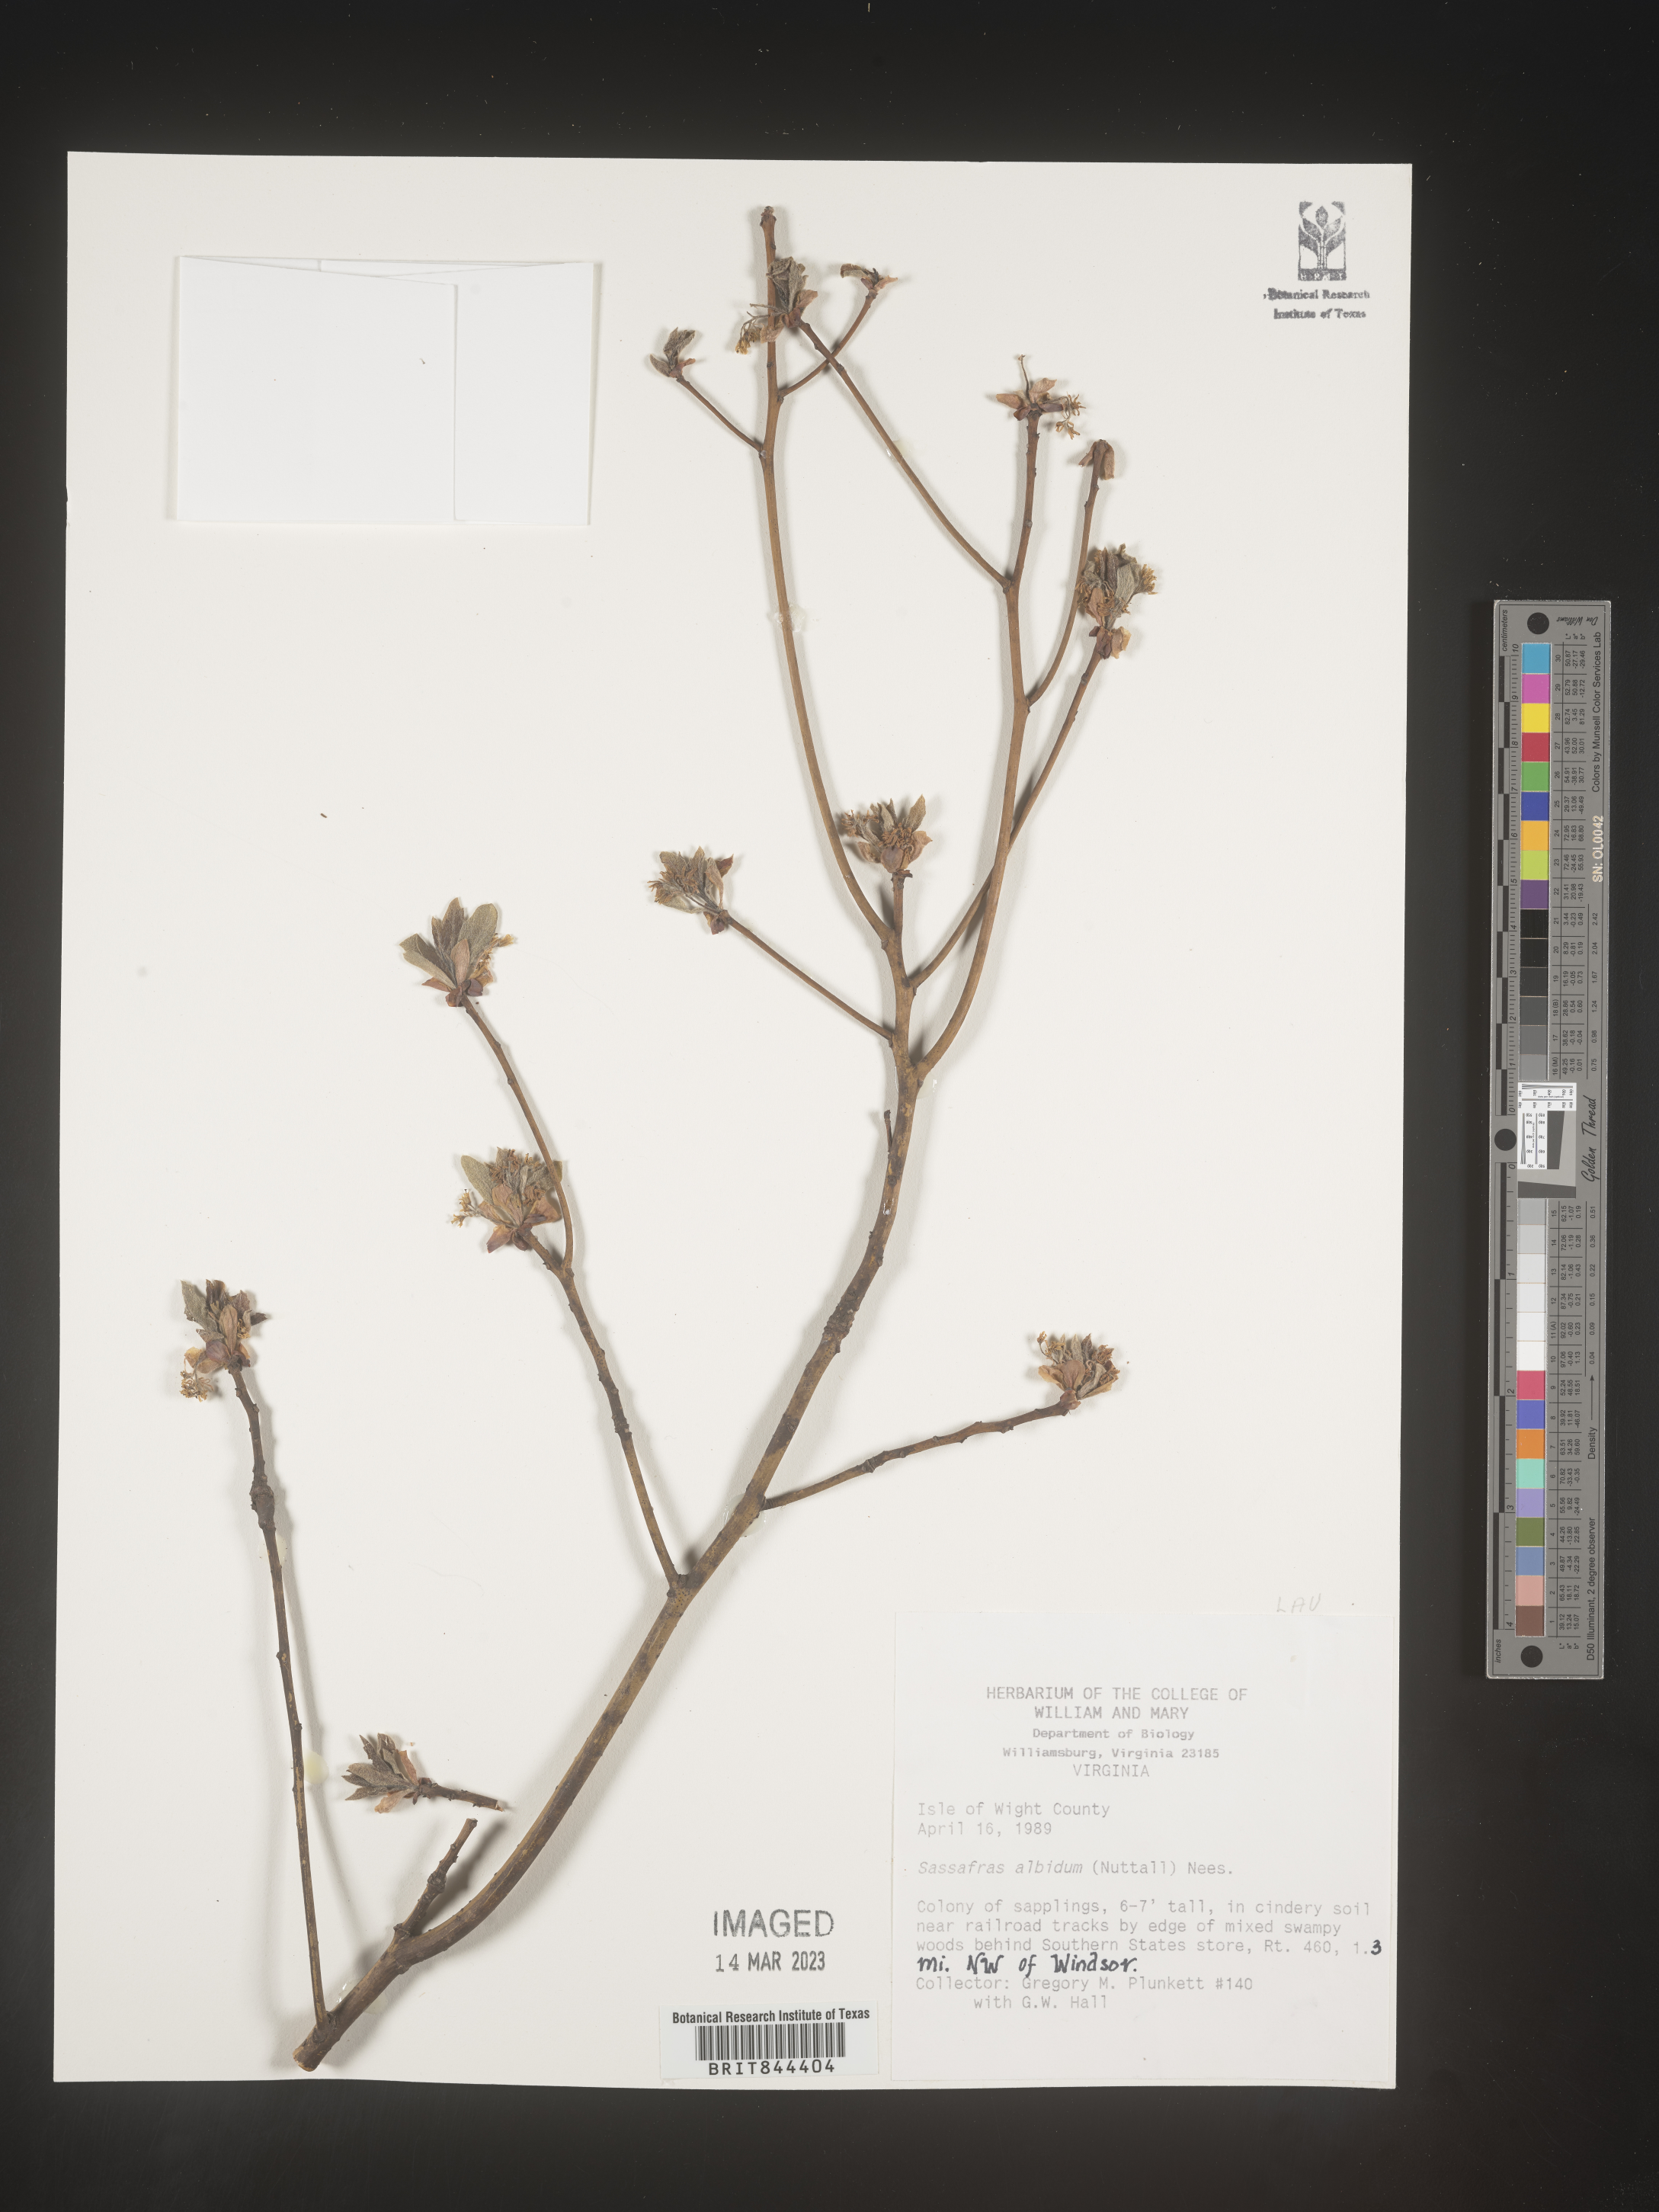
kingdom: Plantae
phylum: Tracheophyta
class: Magnoliopsida
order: Laurales
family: Lauraceae
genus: Sassafras
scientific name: Sassafras albidum
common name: Sassafras
